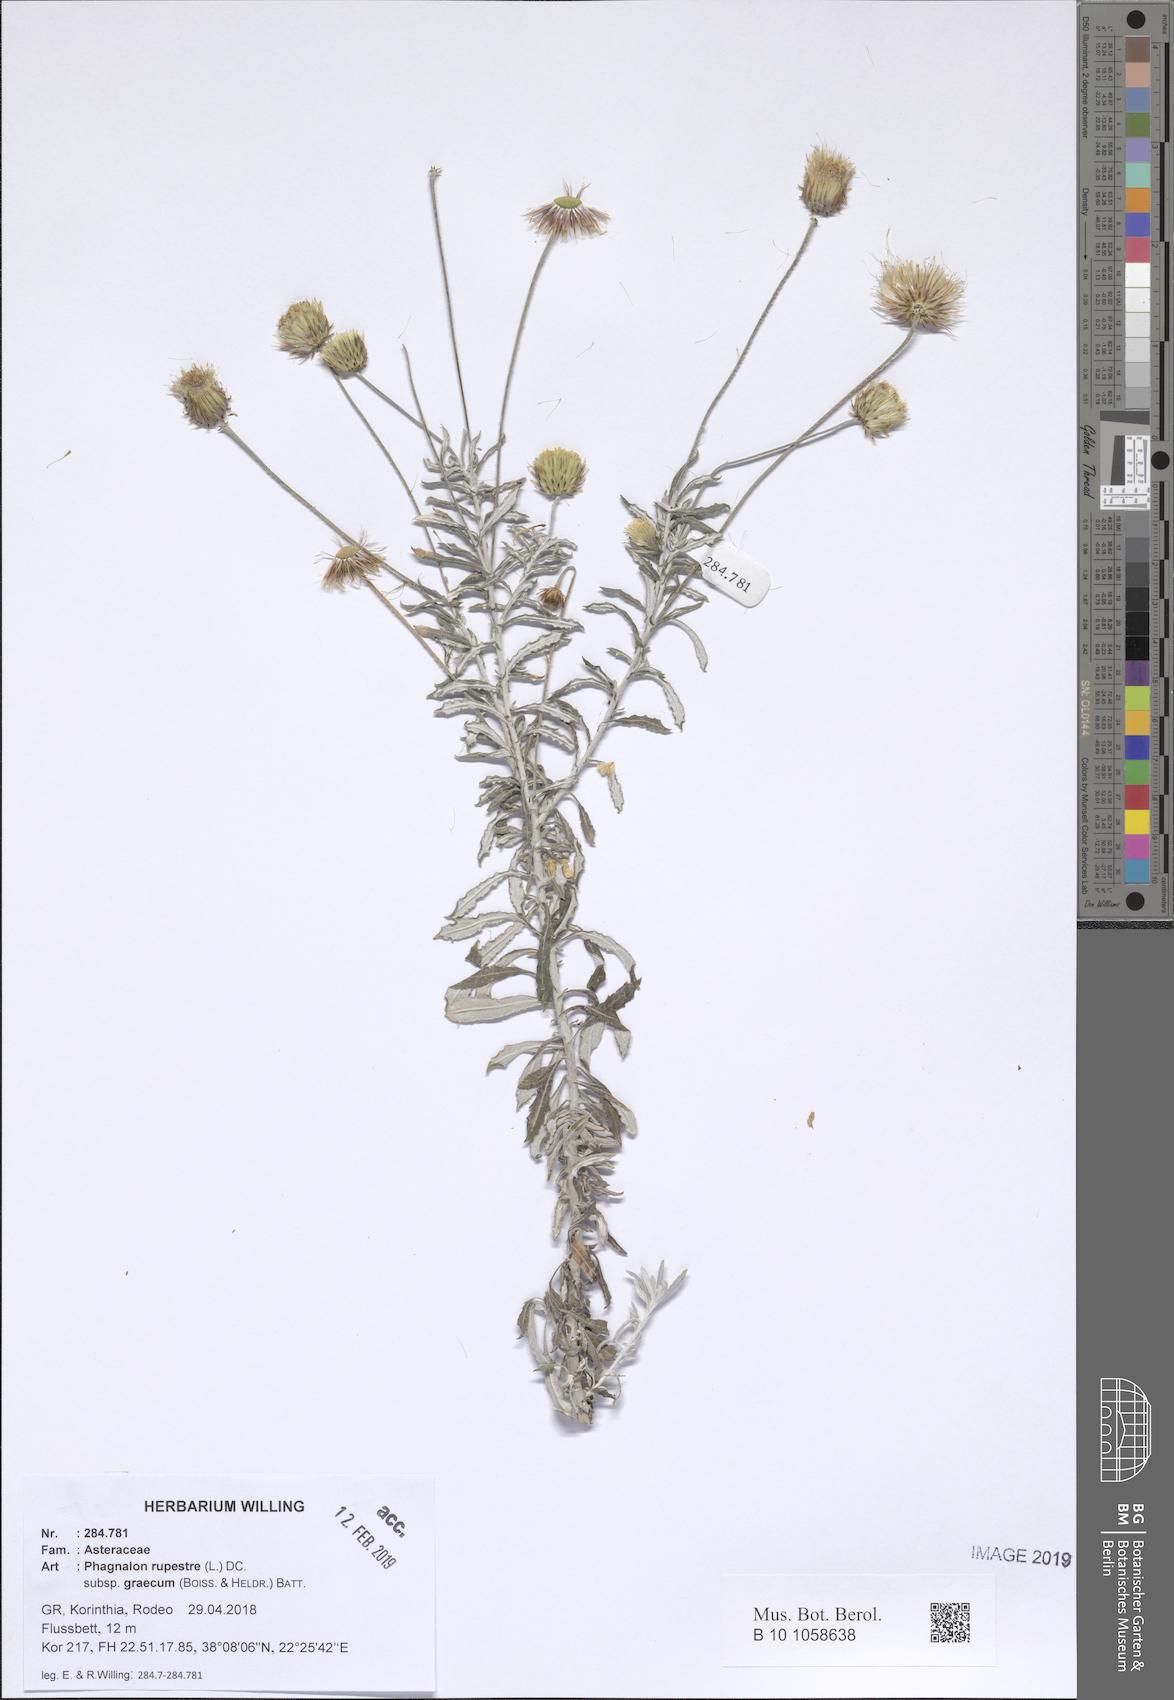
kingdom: Plantae
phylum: Tracheophyta
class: Magnoliopsida
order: Asterales
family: Asteraceae
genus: Phagnalon
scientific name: Phagnalon graecum
